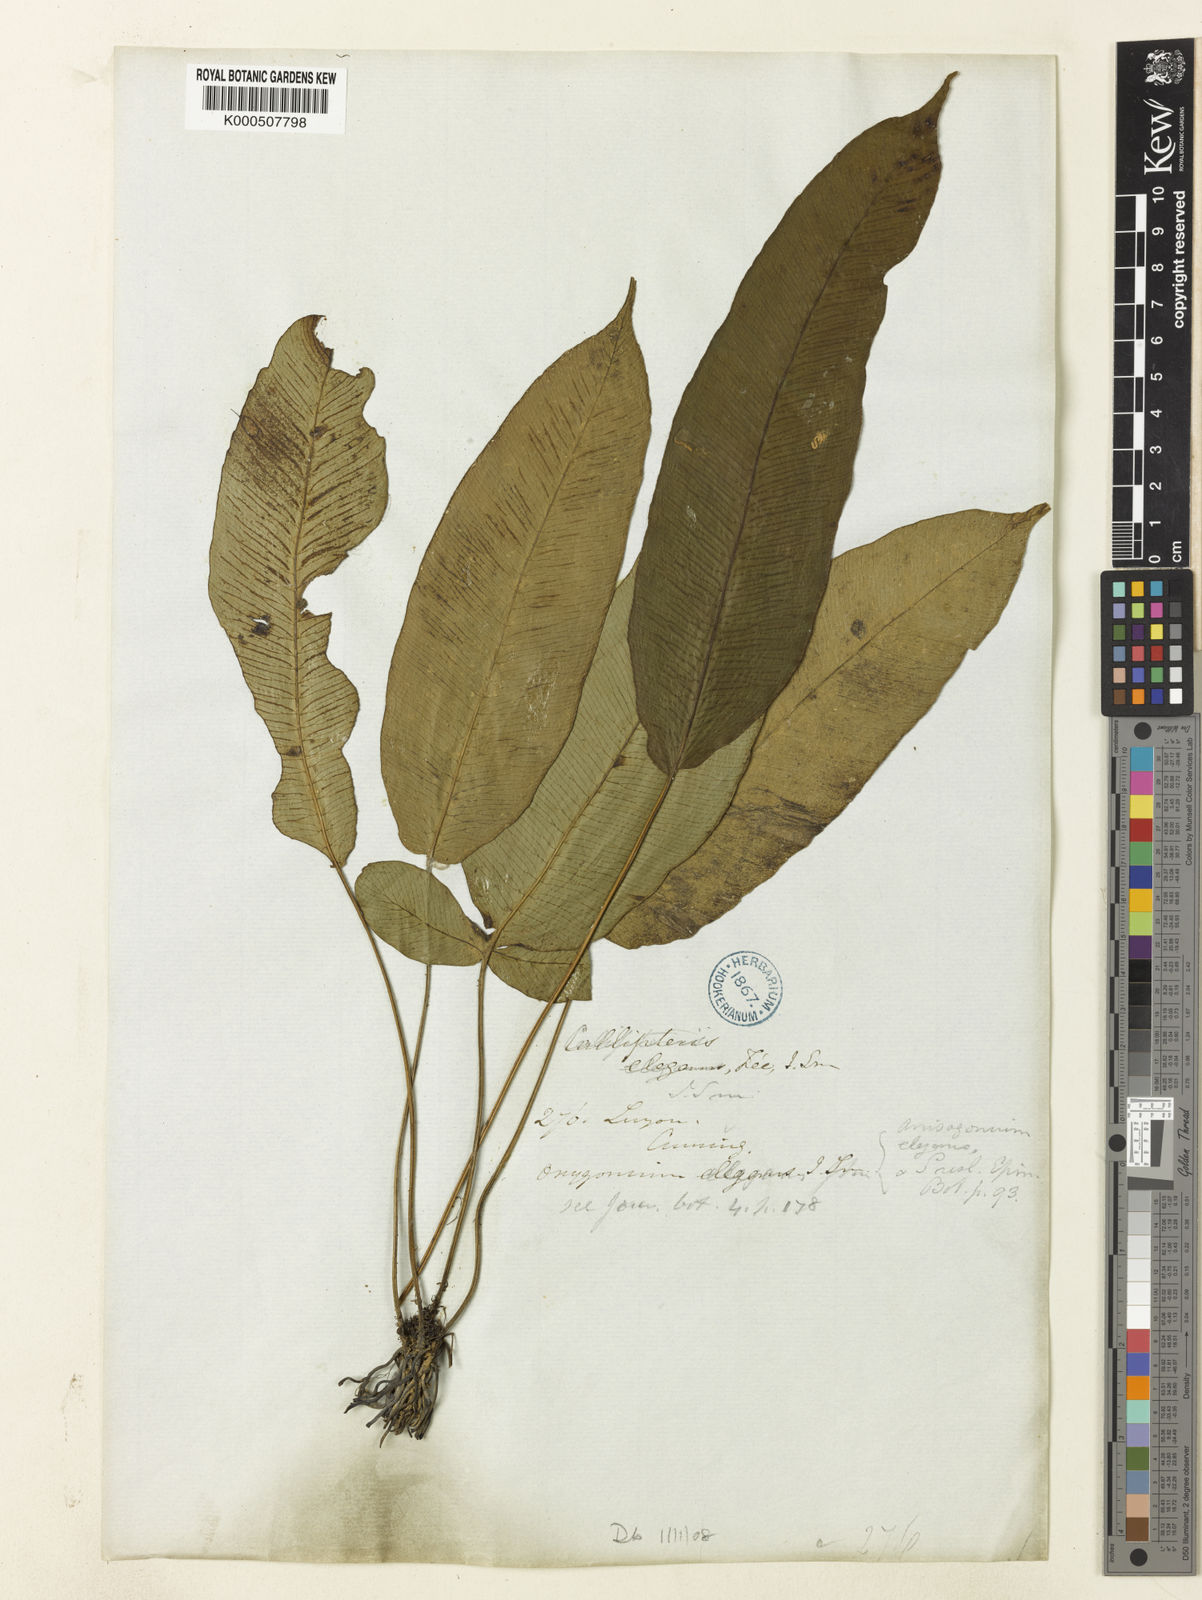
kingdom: Plantae
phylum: Tracheophyta
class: Polypodiopsida
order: Polypodiales
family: Athyriaceae
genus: Diplazium
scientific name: Diplazium
